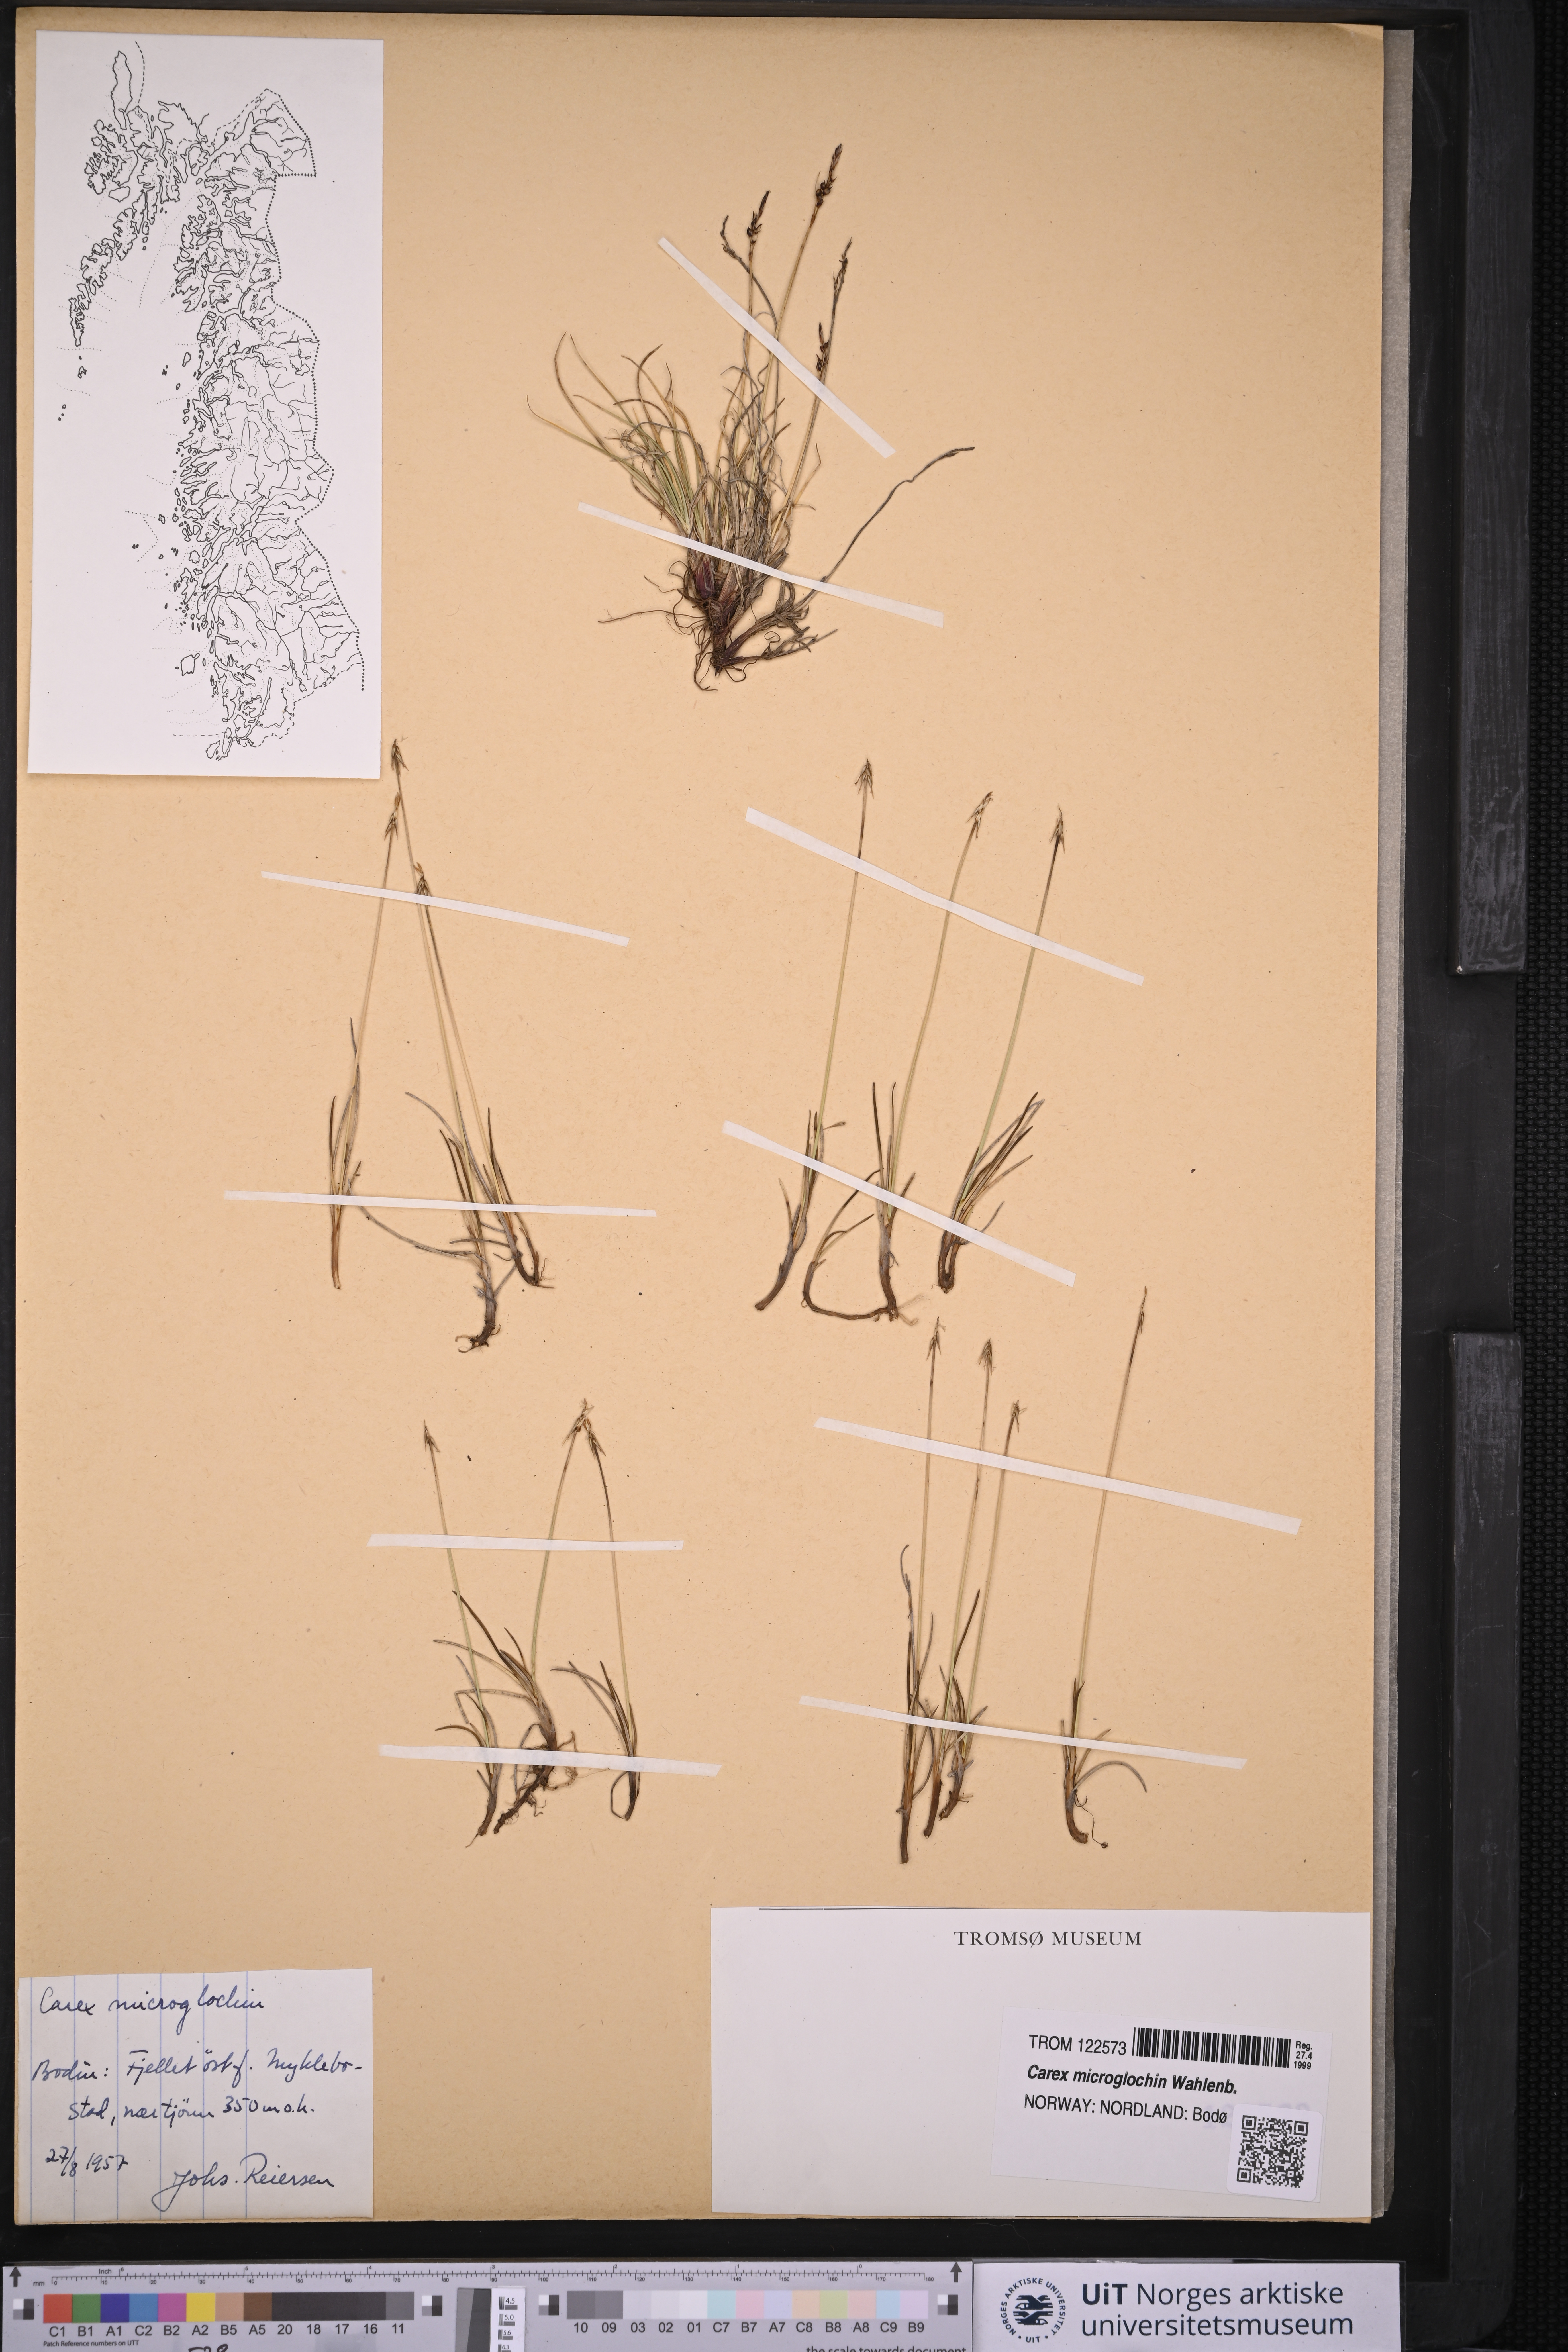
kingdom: Plantae
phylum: Tracheophyta
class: Liliopsida
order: Poales
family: Cyperaceae
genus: Carex
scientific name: Carex microglochin
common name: Bristle sedge
